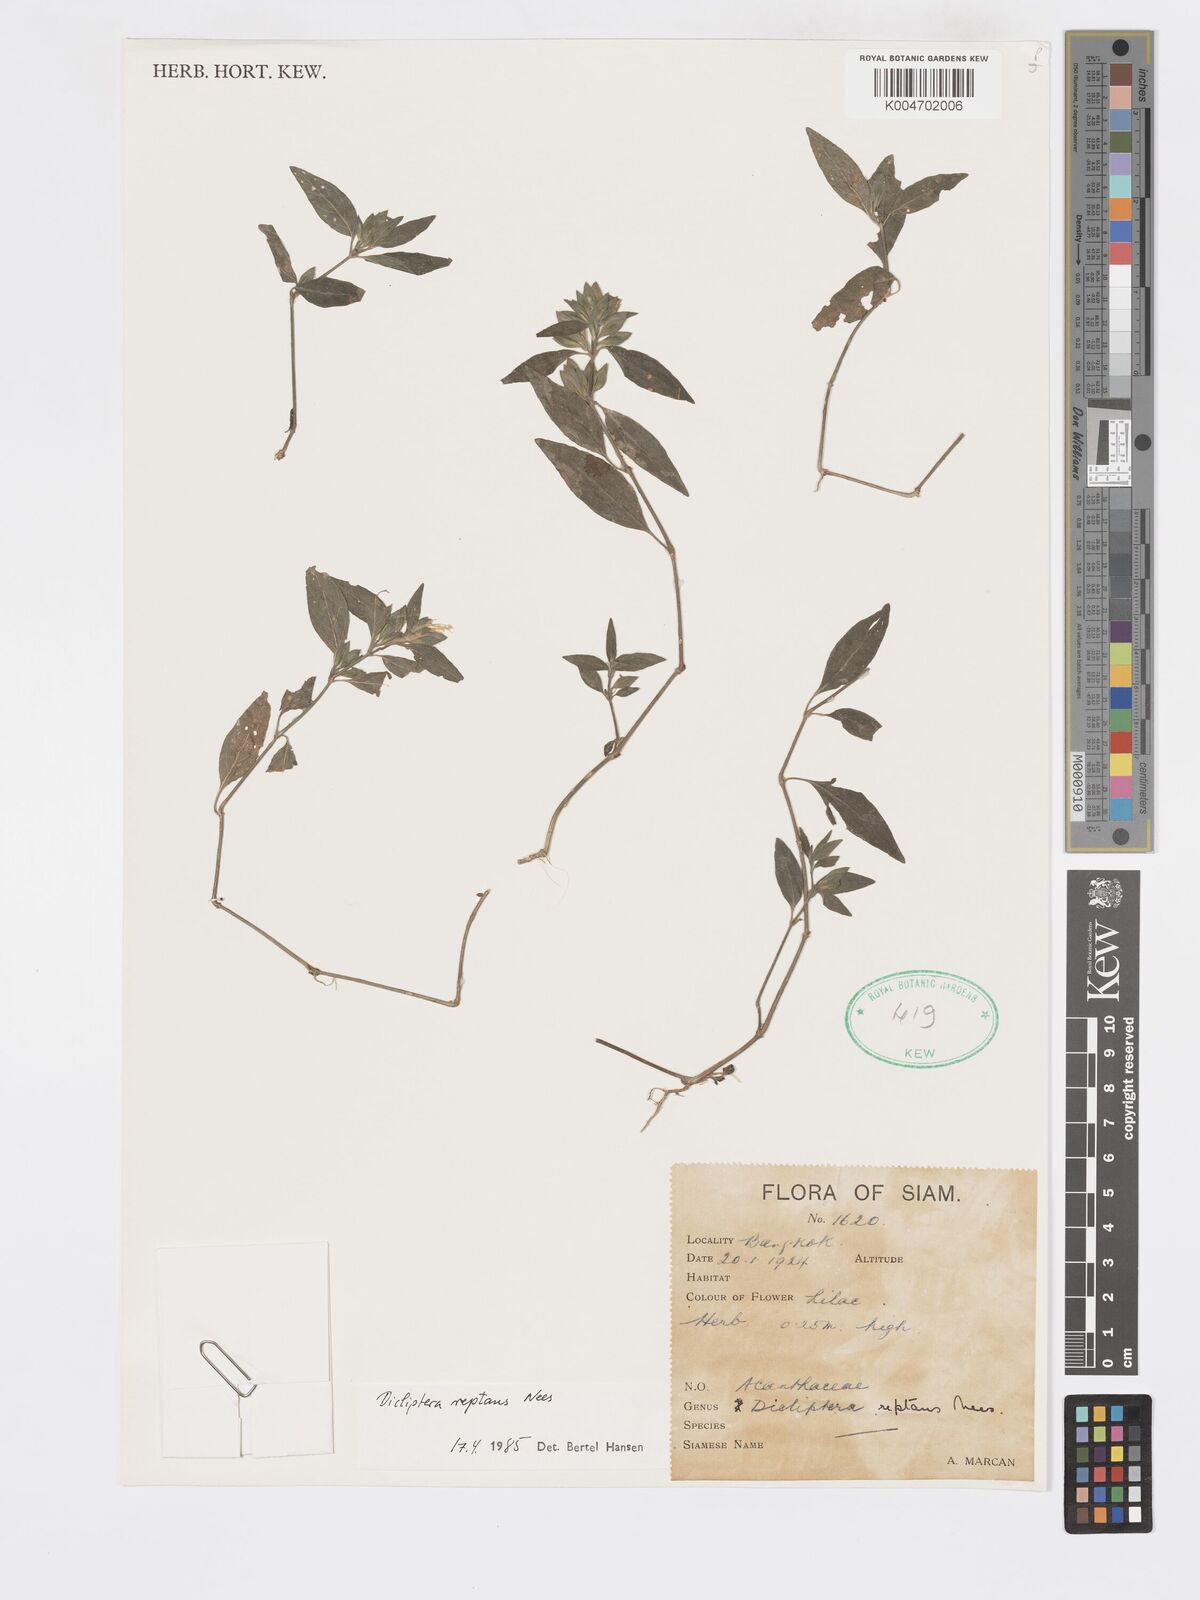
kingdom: Plantae
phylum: Tracheophyta
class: Magnoliopsida
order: Lamiales
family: Acanthaceae
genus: Dicliptera
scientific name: Dicliptera reptans
